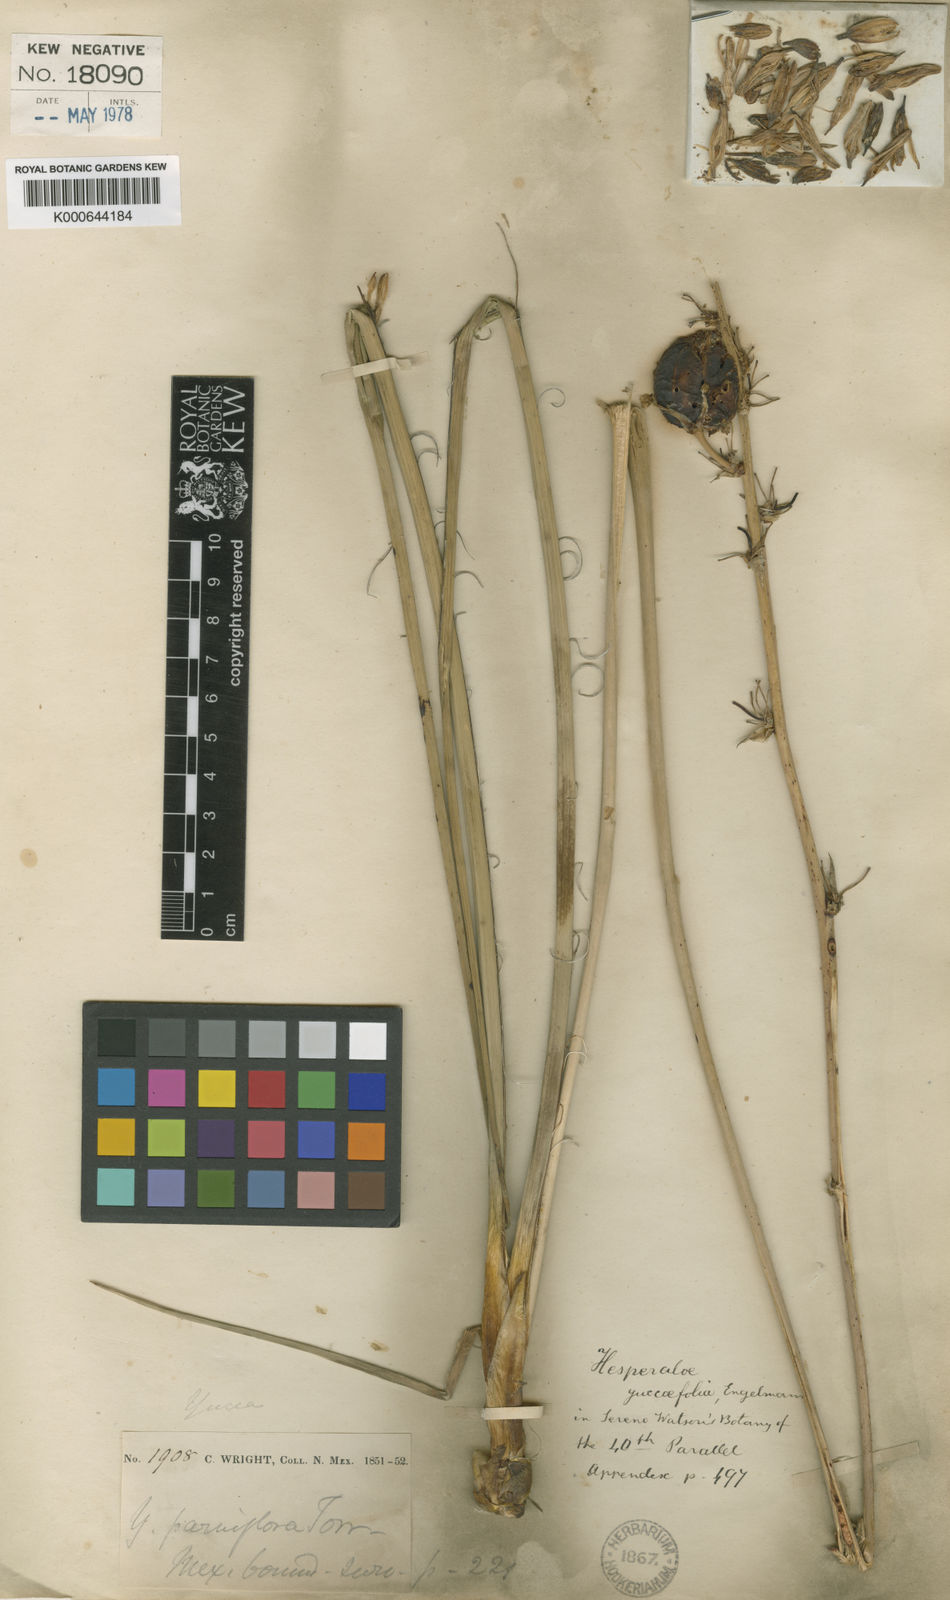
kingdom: Plantae
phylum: Tracheophyta
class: Liliopsida
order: Asparagales
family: Asparagaceae
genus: Hesperaloe
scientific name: Hesperaloe
